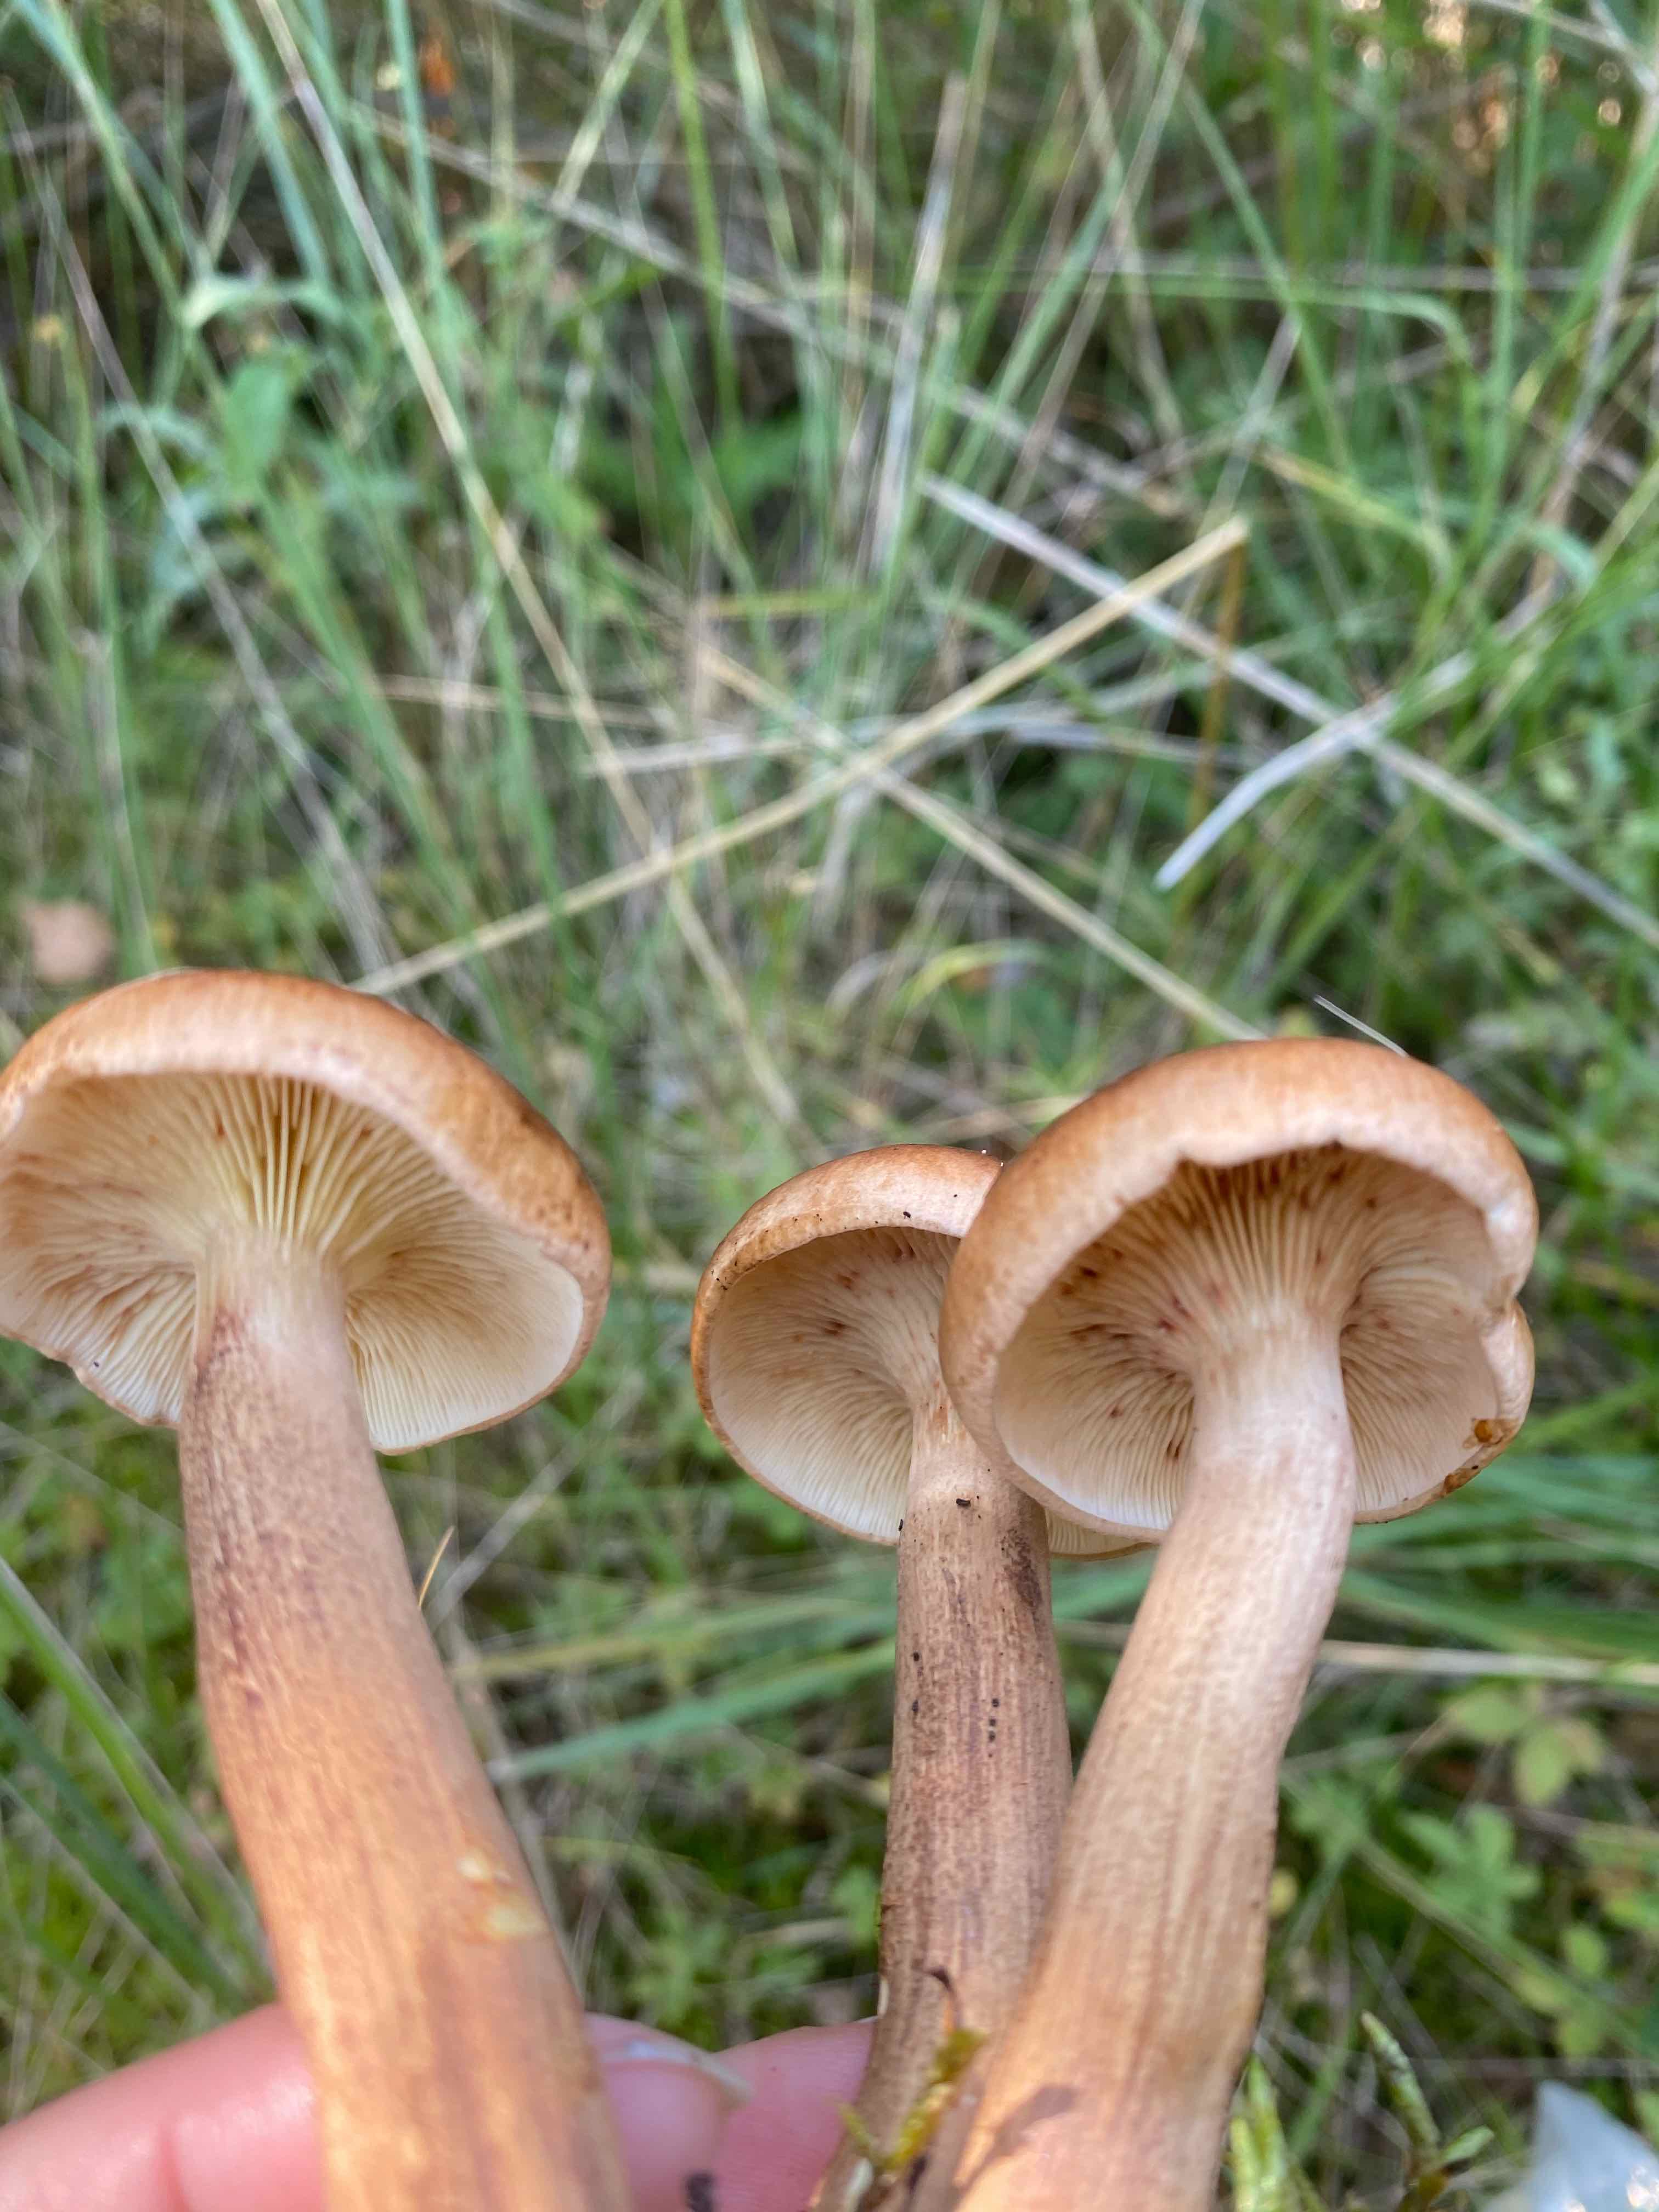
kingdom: Fungi
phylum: Basidiomycota
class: Agaricomycetes
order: Agaricales
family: Tricholomataceae
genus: Tricholoma
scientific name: Tricholoma fulvum
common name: birke-ridderhat
